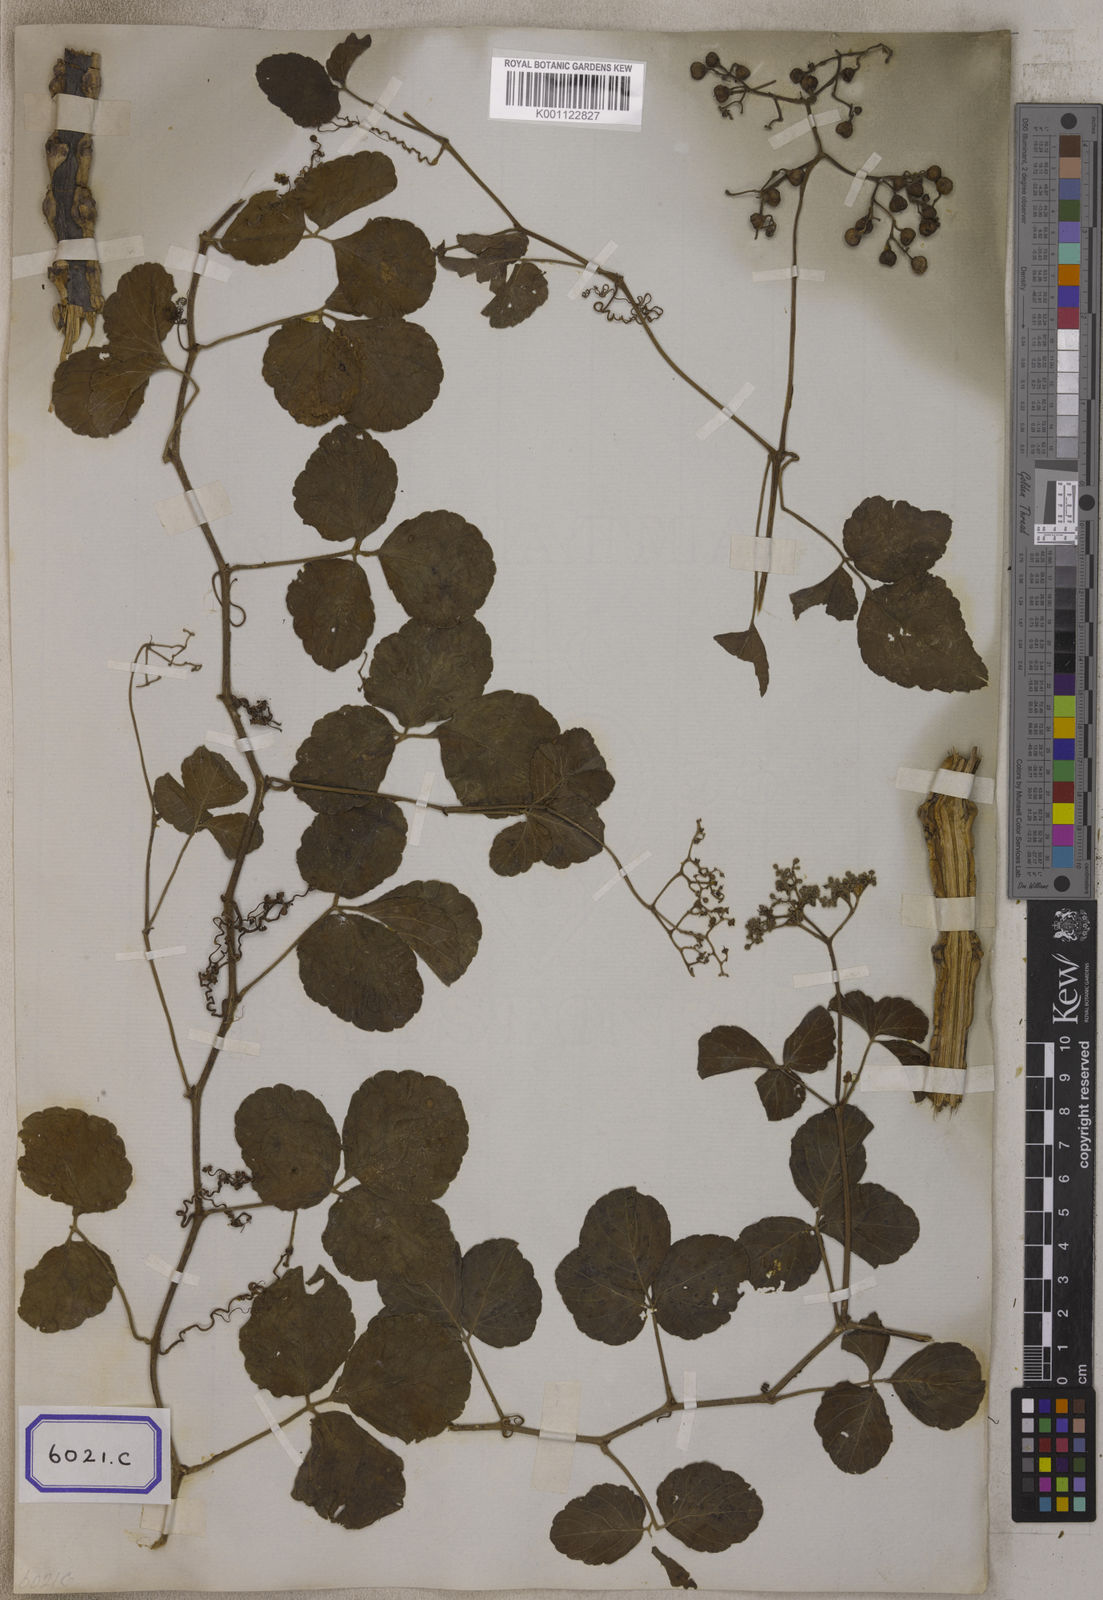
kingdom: Plantae
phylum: Tracheophyta
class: Magnoliopsida
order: Vitales
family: Vitaceae
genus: Causonis
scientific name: Causonis trifolia
